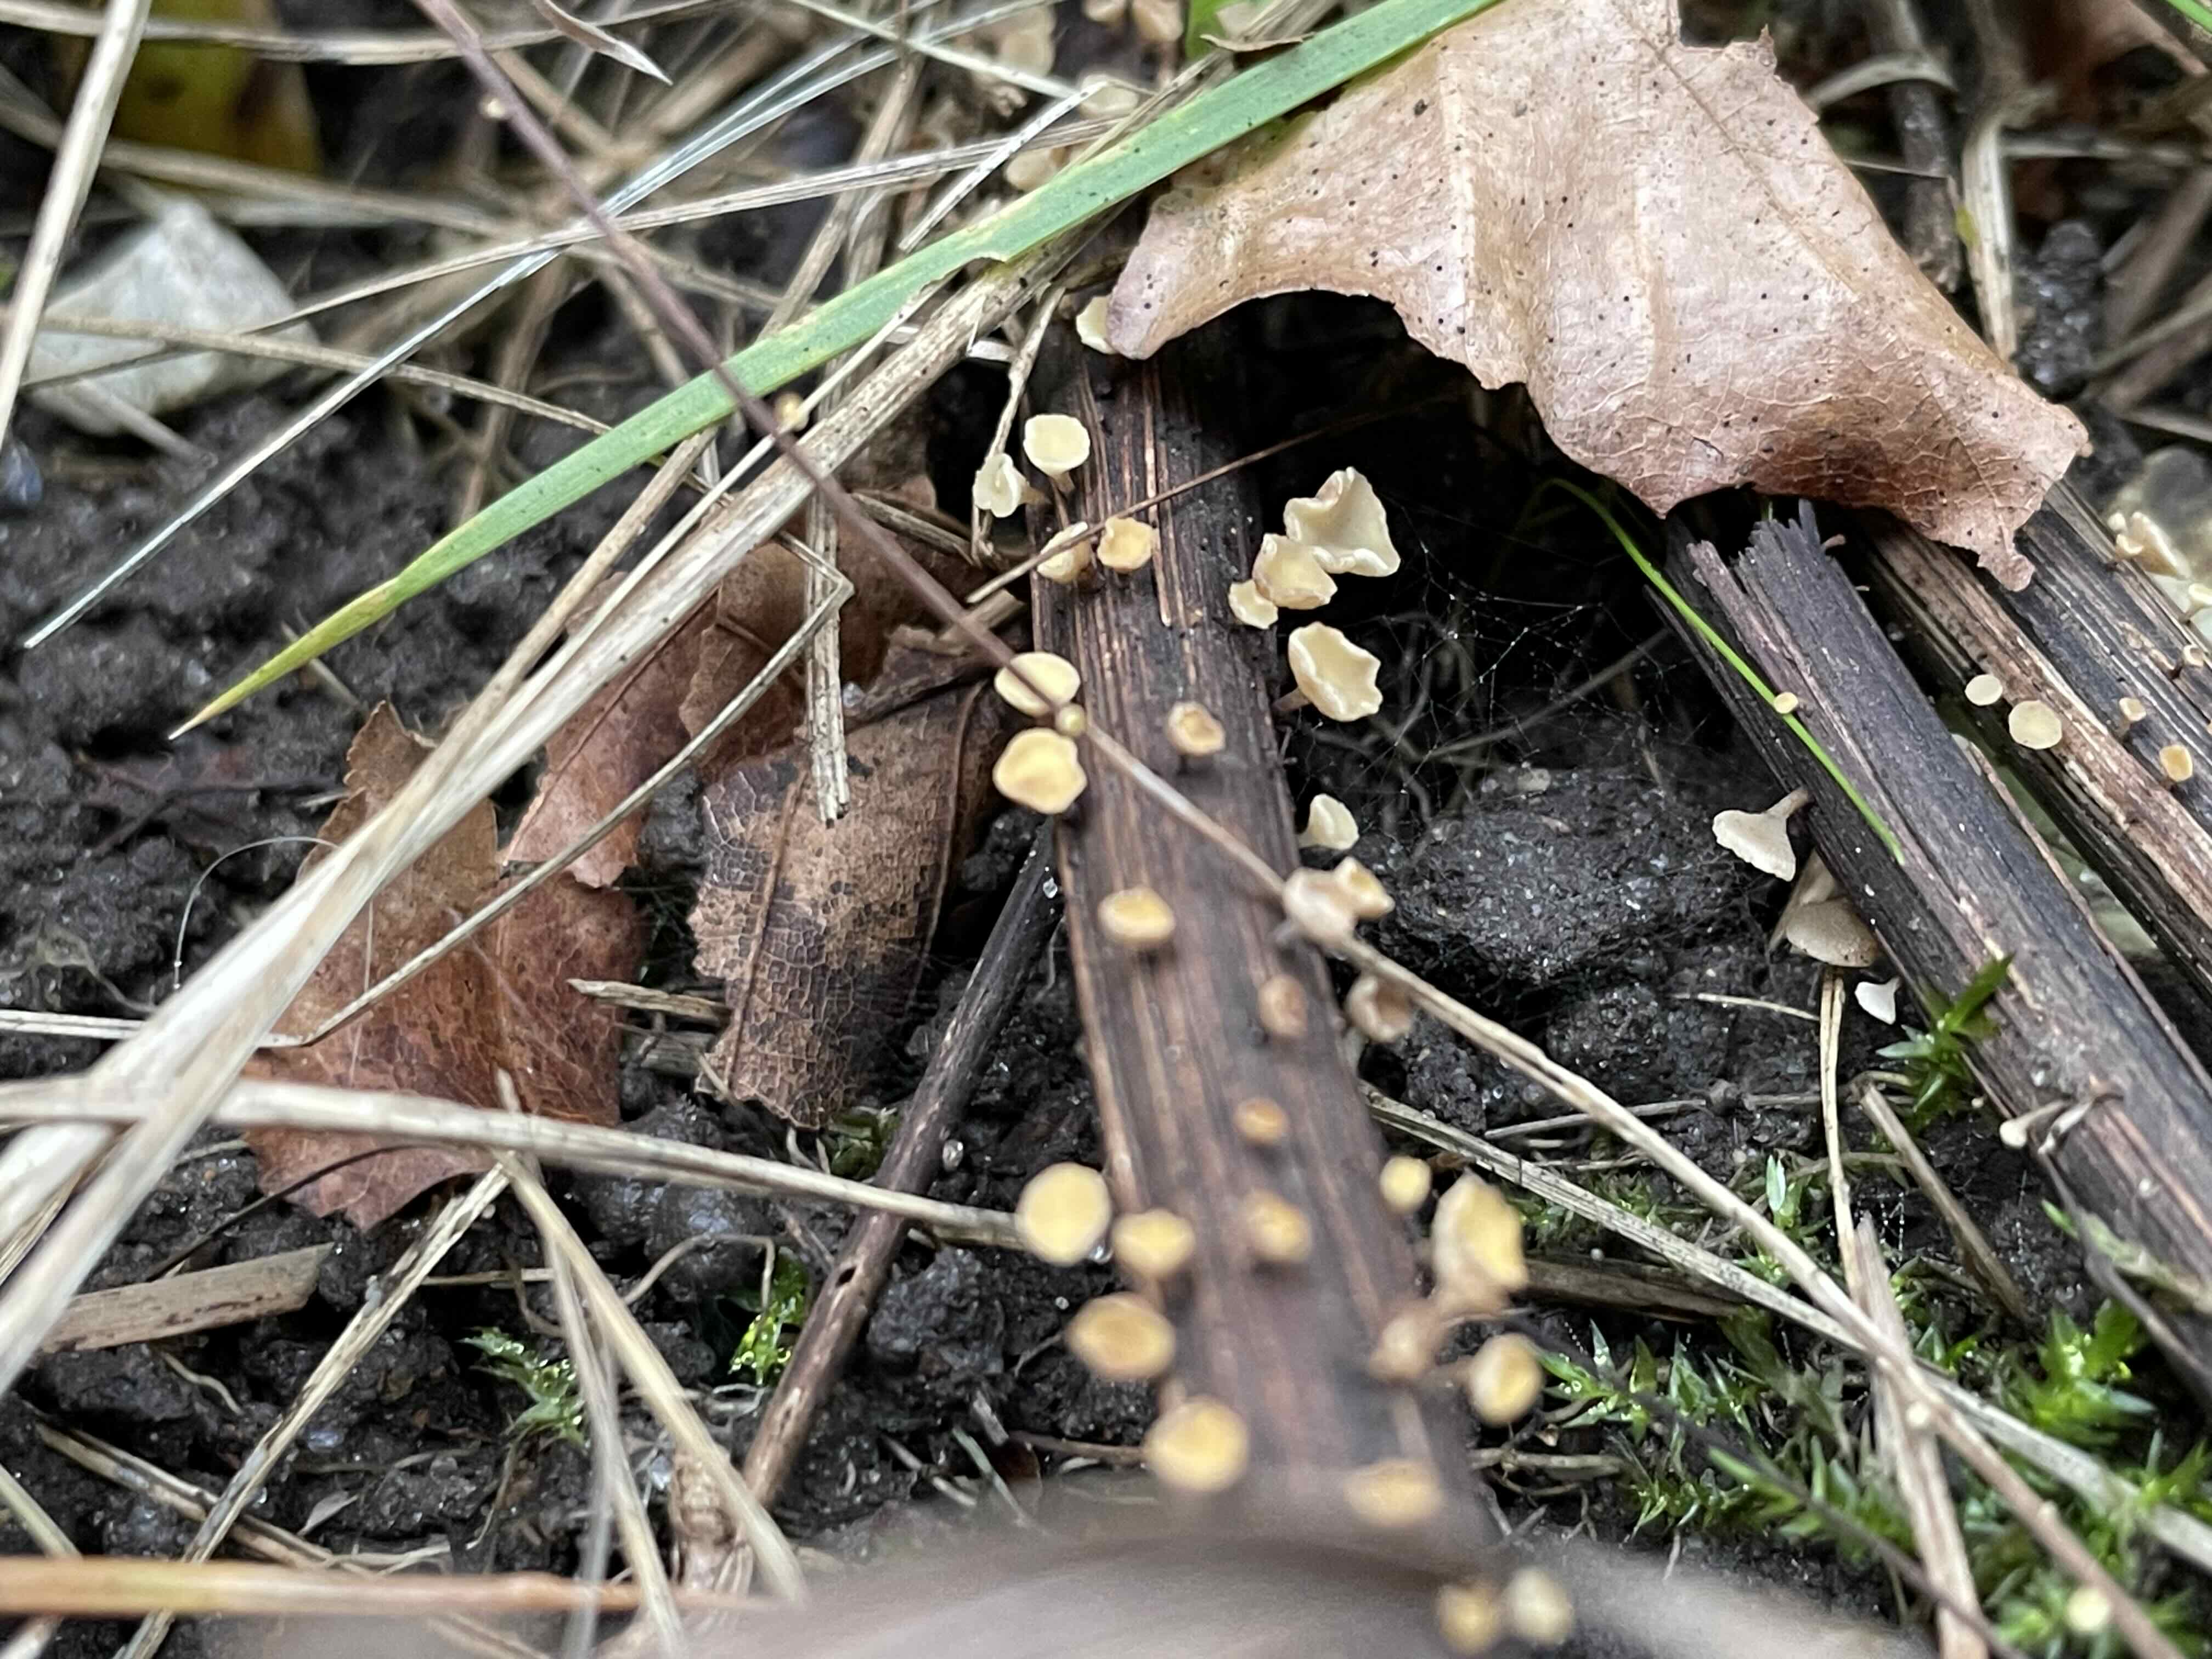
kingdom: Fungi
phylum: Ascomycota
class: Leotiomycetes
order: Helotiales
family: Helotiaceae
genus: Hymenoscyphus
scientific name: Hymenoscyphus
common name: stilkskive
